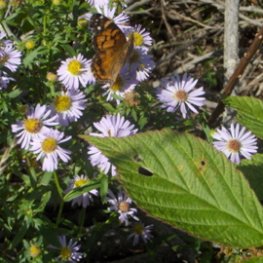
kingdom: Animalia
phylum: Arthropoda
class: Insecta
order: Lepidoptera
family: Nymphalidae
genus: Vanessa
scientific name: Vanessa virginiensis
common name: American Lady
